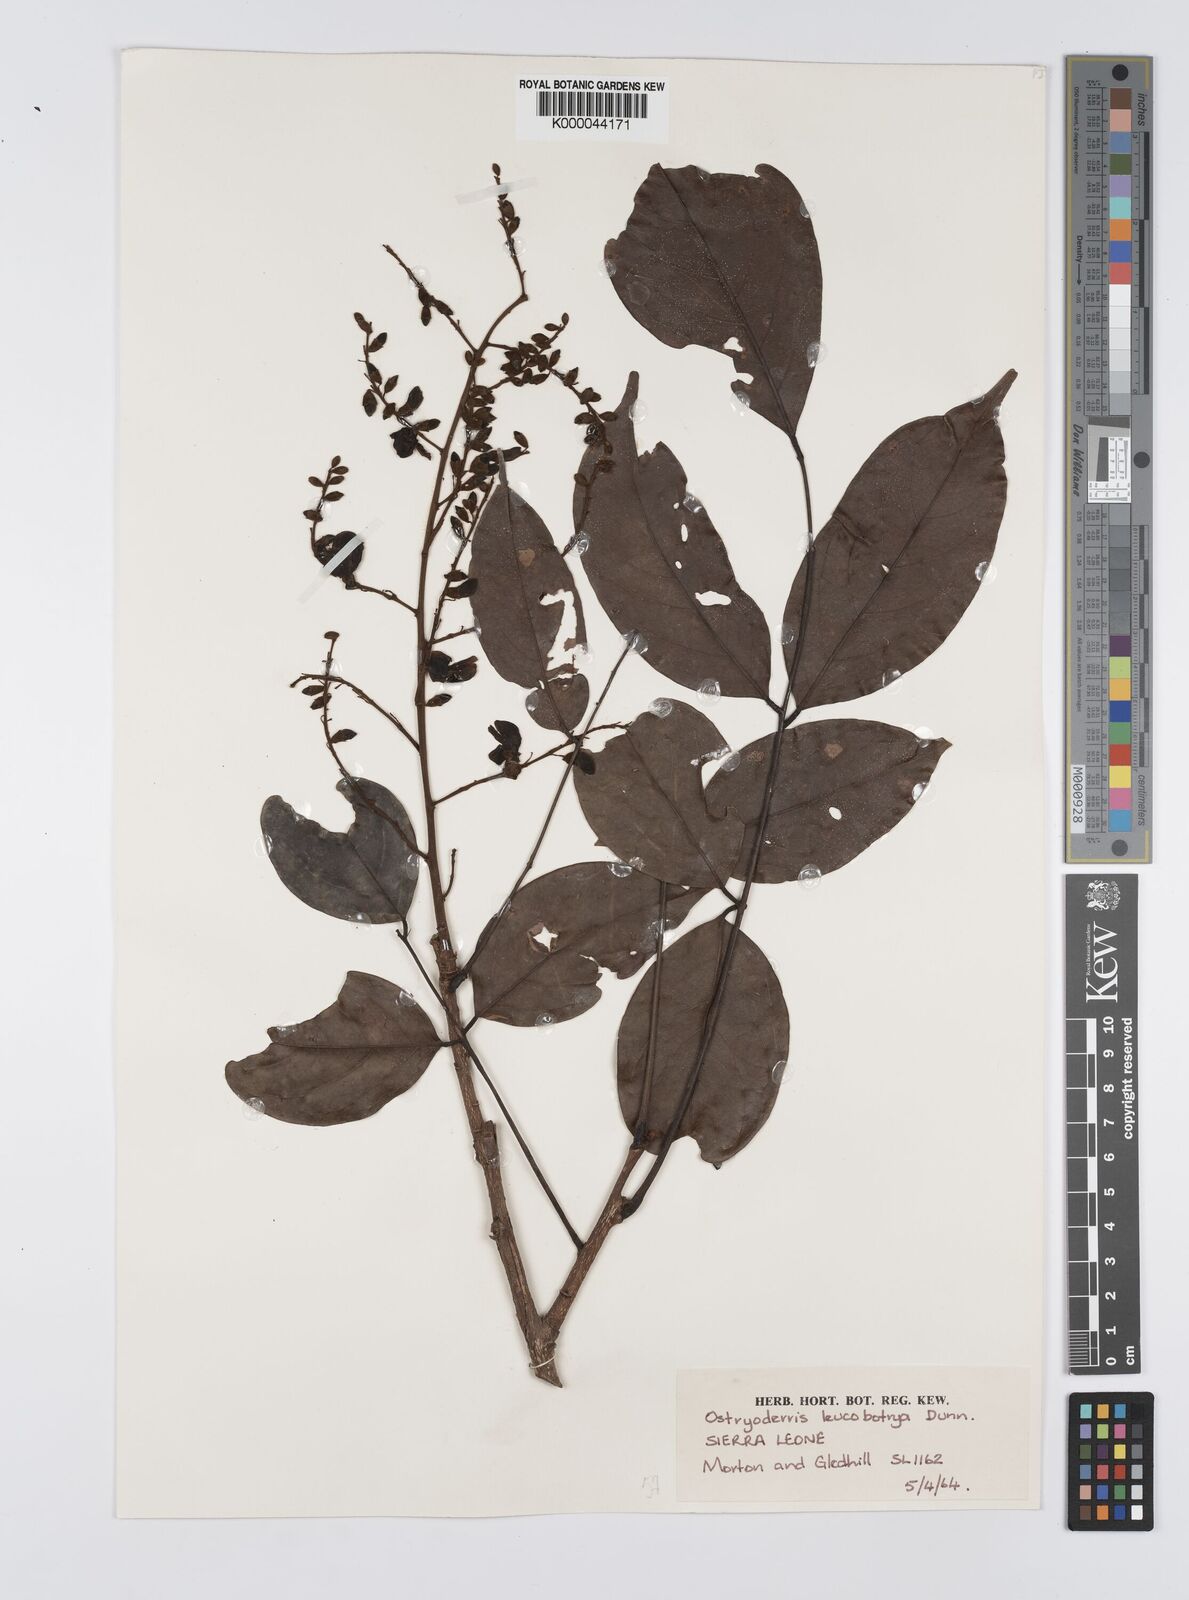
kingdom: Plantae
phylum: Tracheophyta
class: Magnoliopsida
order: Fabales
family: Fabaceae
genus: Aganope
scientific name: Aganope gabonica
